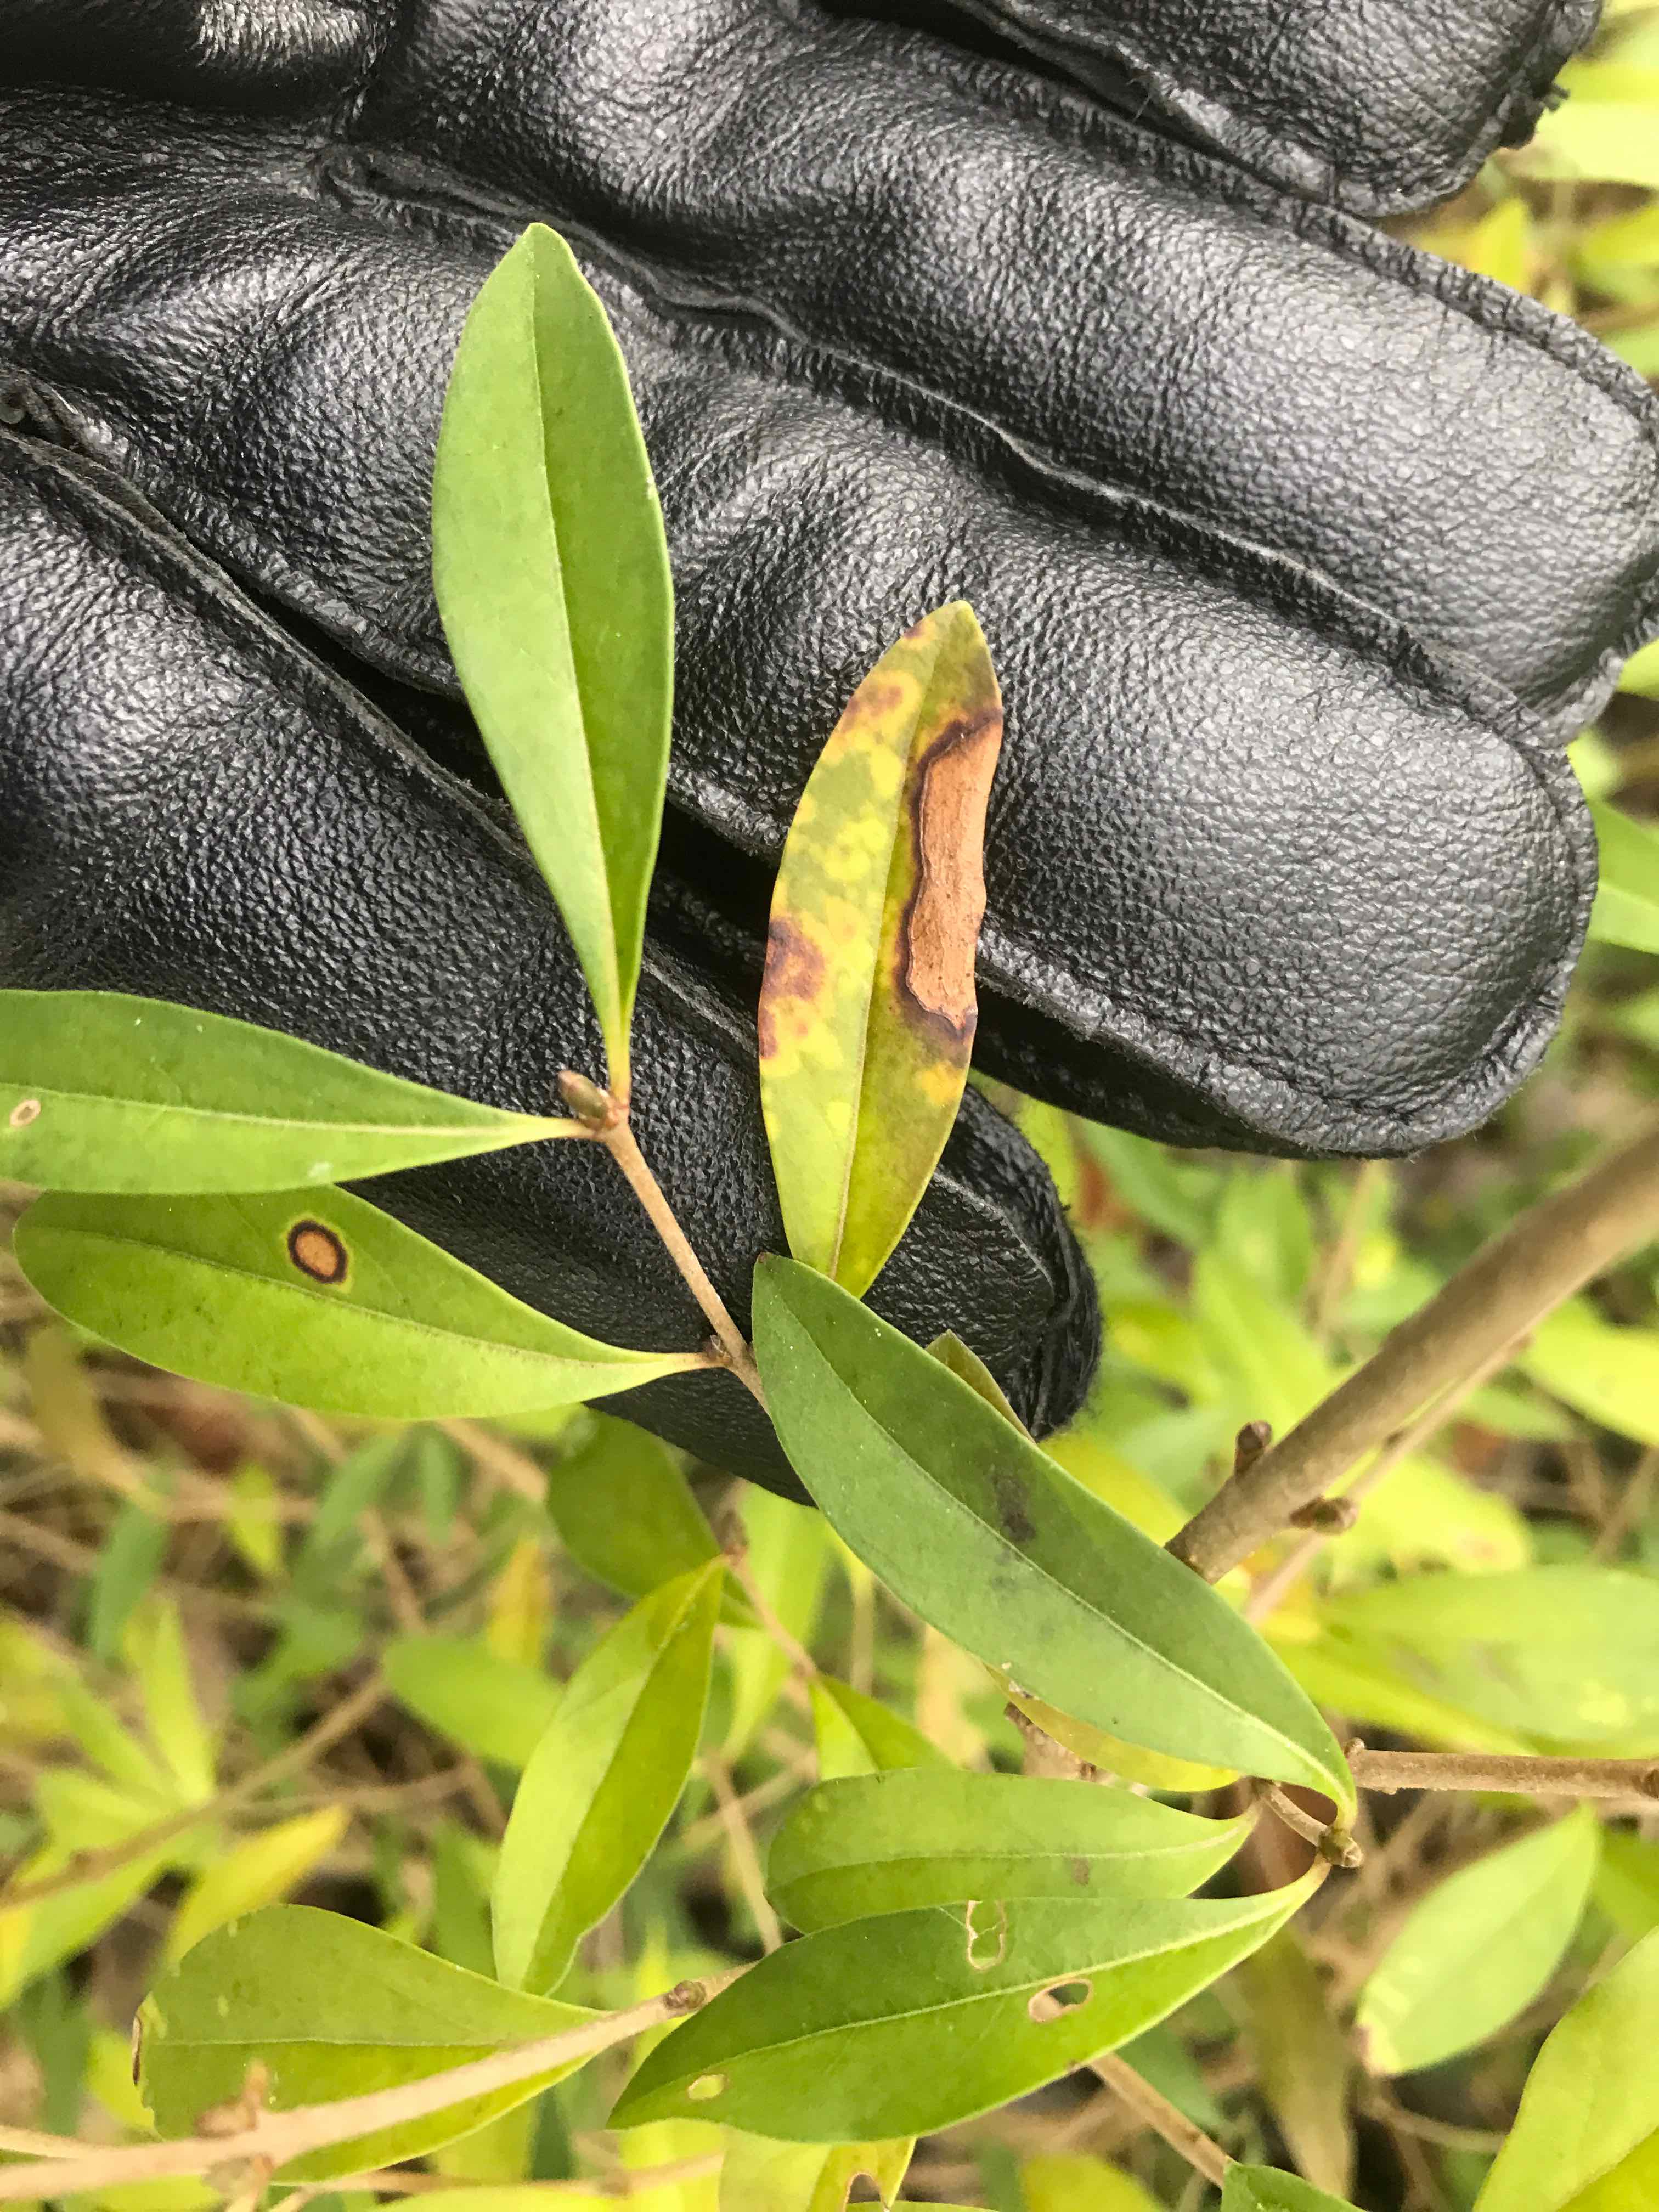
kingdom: Fungi
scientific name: Fungi
